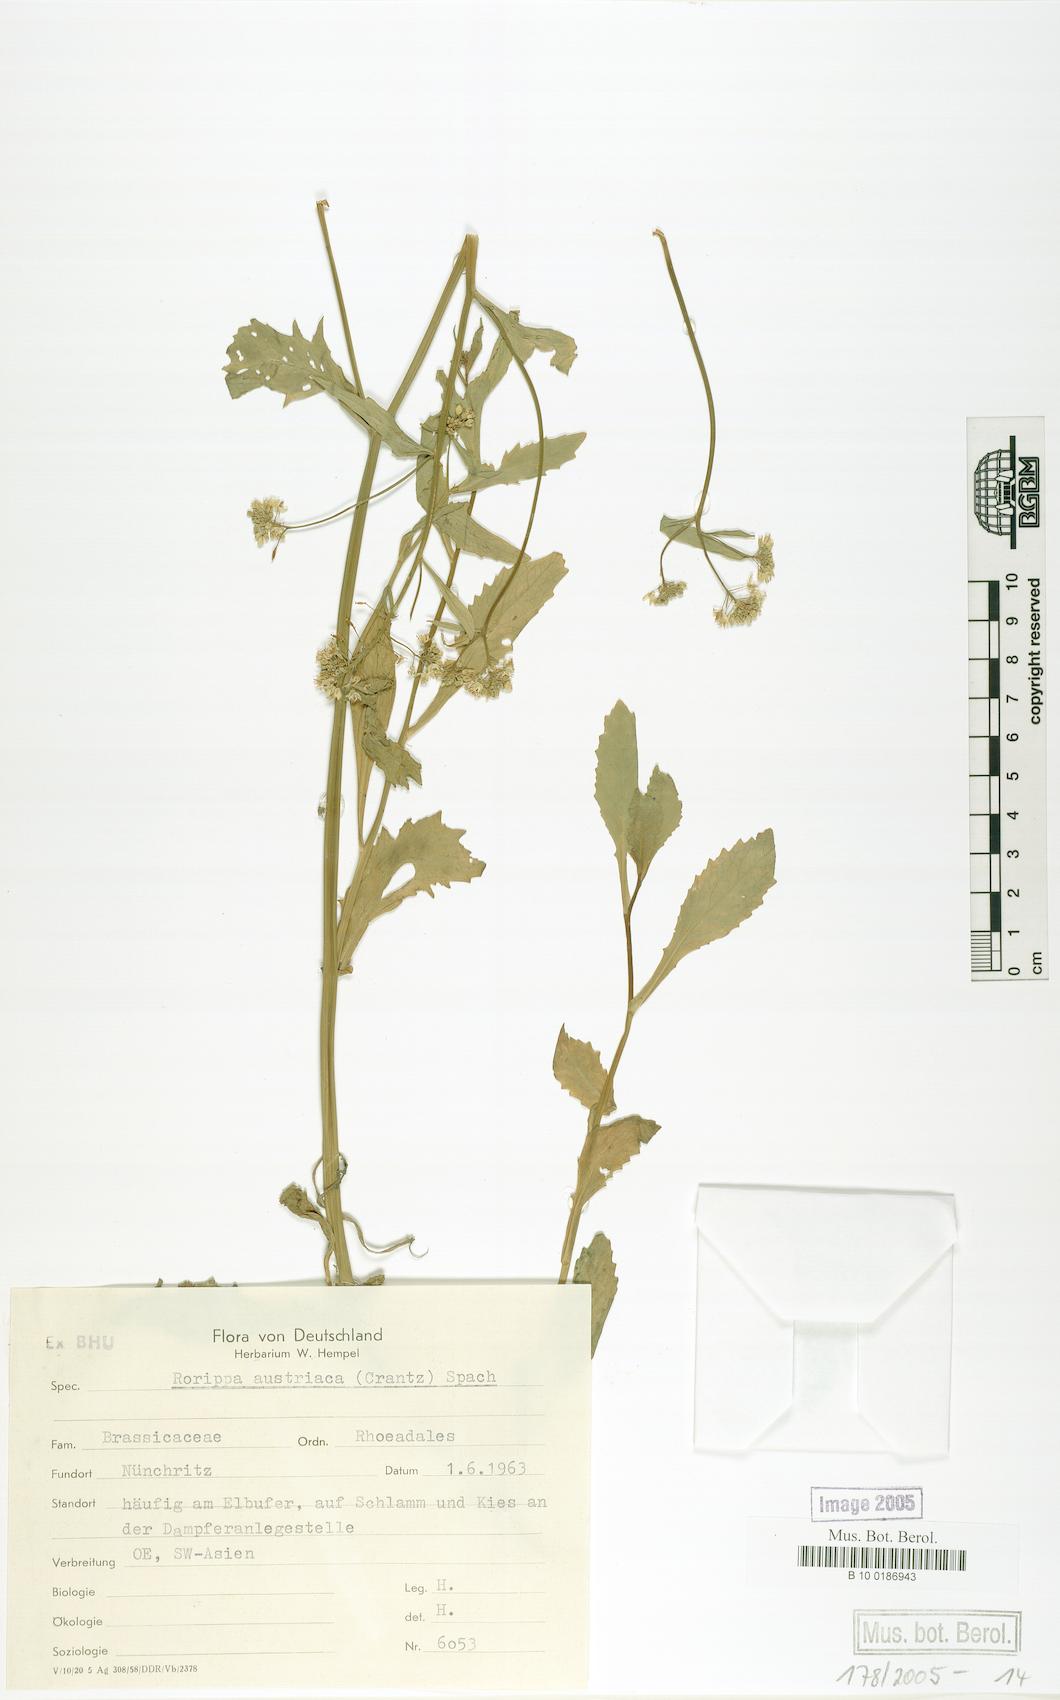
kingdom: Plantae
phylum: Tracheophyta
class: Magnoliopsida
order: Brassicales
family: Brassicaceae
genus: Rorippa
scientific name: Rorippa austriaca
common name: Austrian yellow-cress
